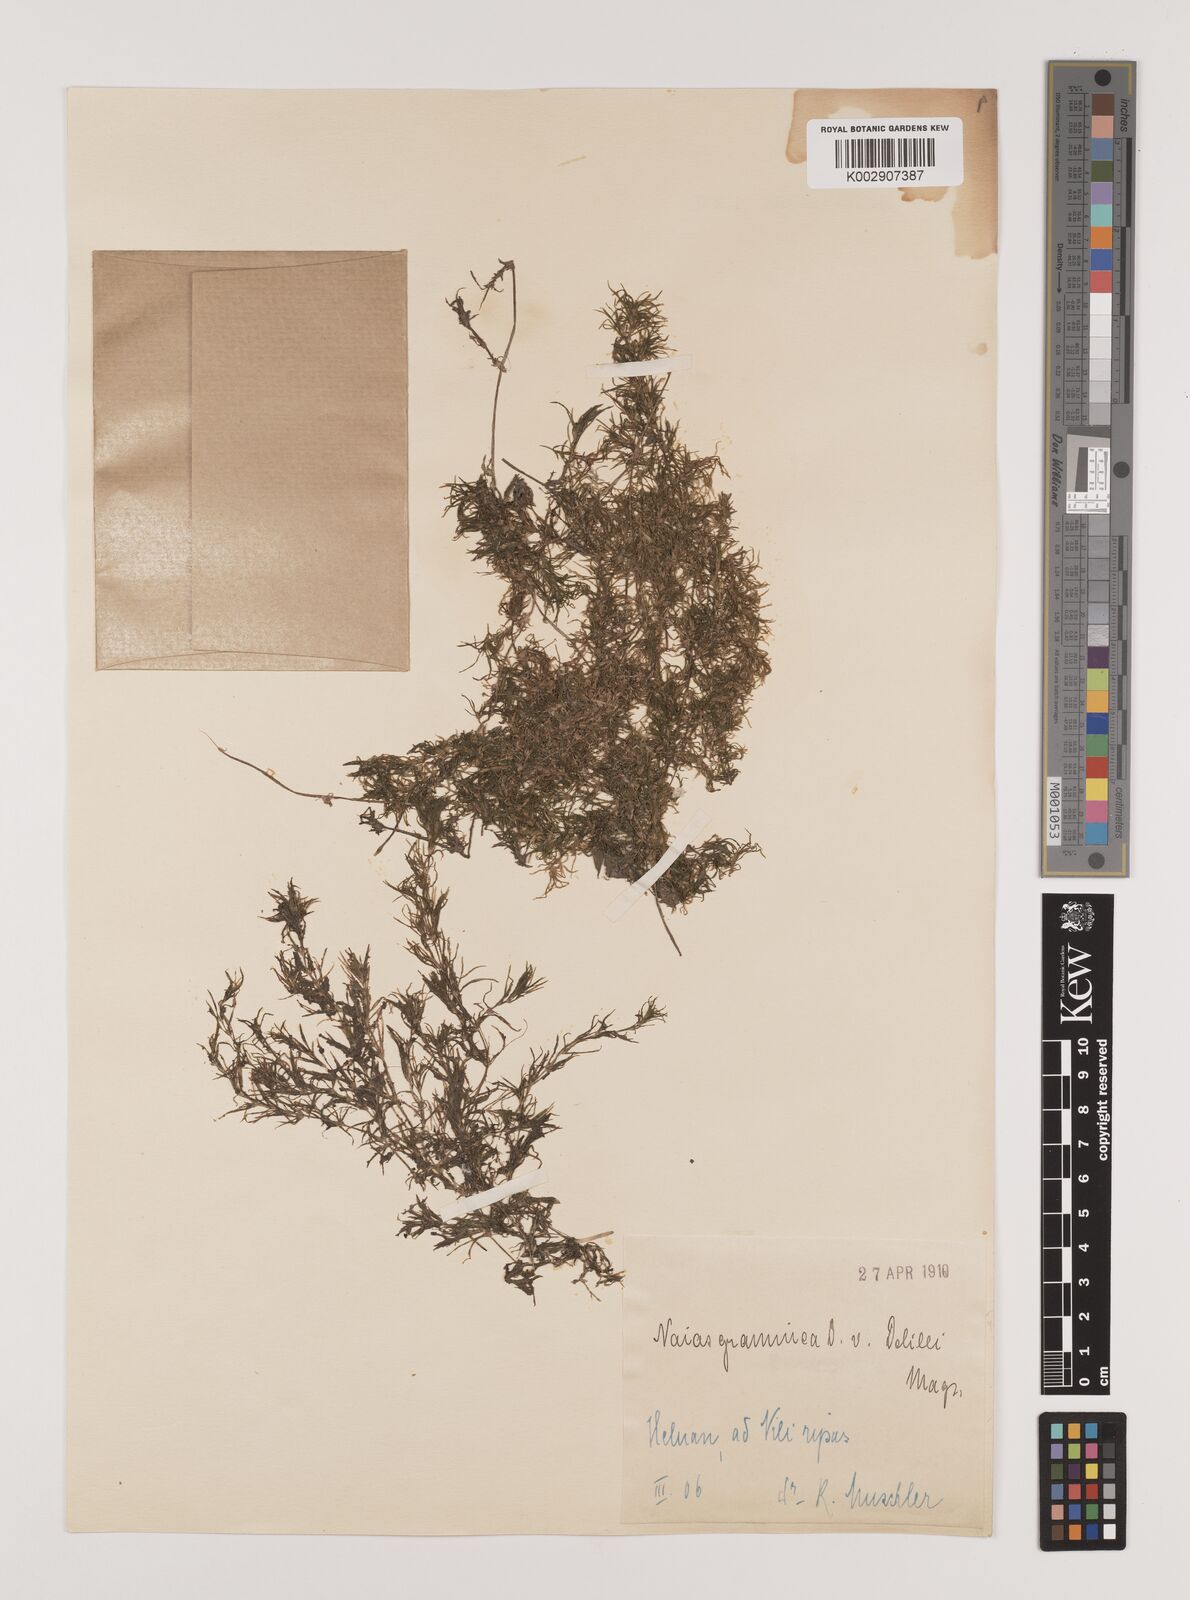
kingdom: Plantae
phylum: Tracheophyta
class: Liliopsida
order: Alismatales
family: Hydrocharitaceae
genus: Najas
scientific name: Najas graminea
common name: Ricefield waternymph
